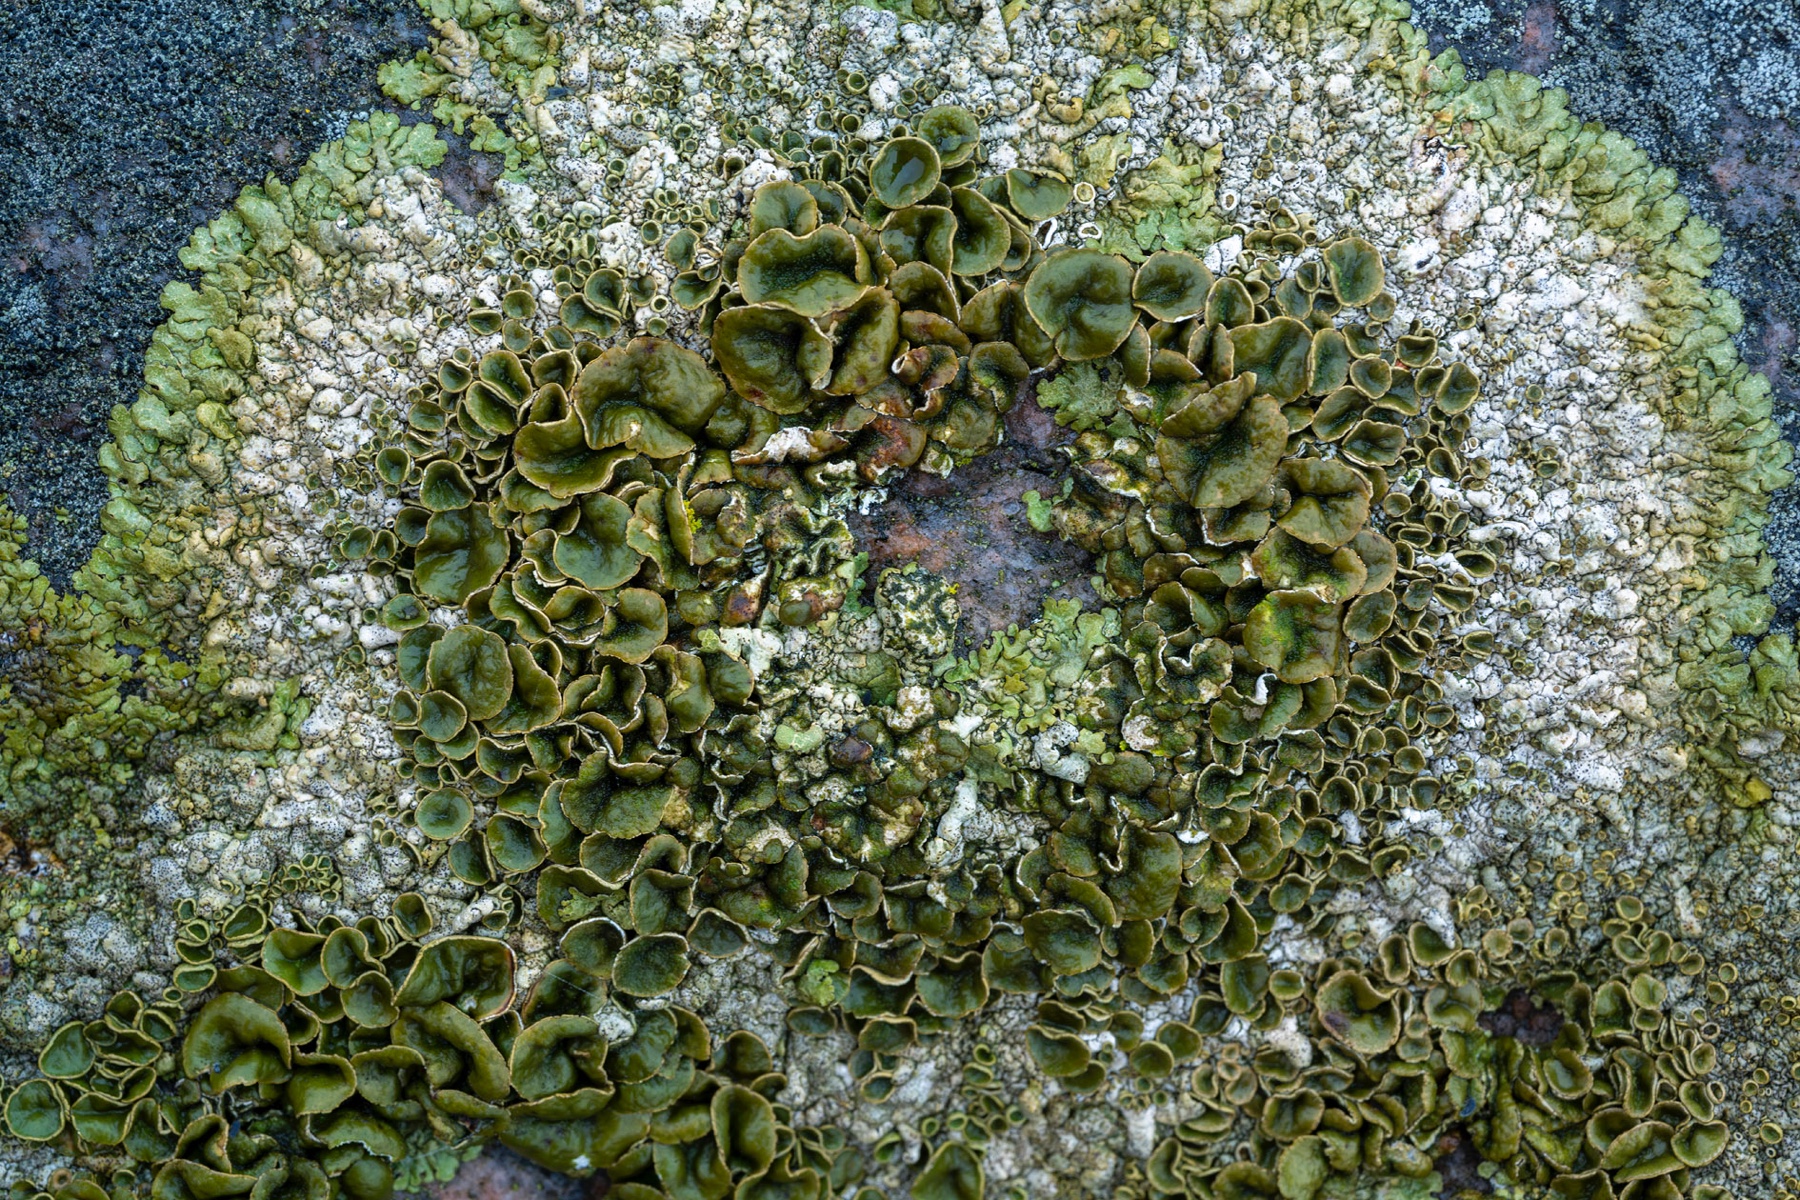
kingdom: Fungi
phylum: Ascomycota
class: Lecanoromycetes
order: Lecanorales
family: Parmeliaceae
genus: Xanthoparmelia
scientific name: Xanthoparmelia pulla
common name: mørkebrun skållav
